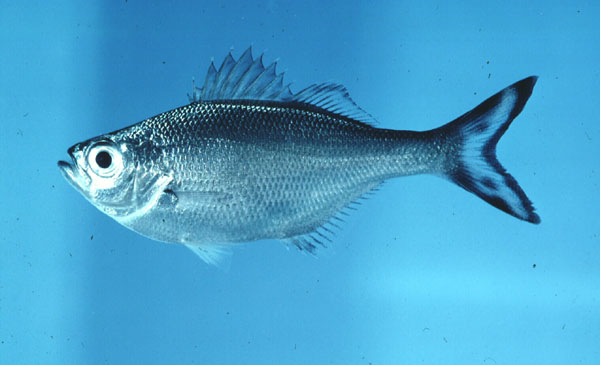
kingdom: Animalia
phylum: Chordata
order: Perciformes
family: Kuhliidae
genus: Kuhlia
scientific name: Kuhlia marginata
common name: Spotted flagtail
